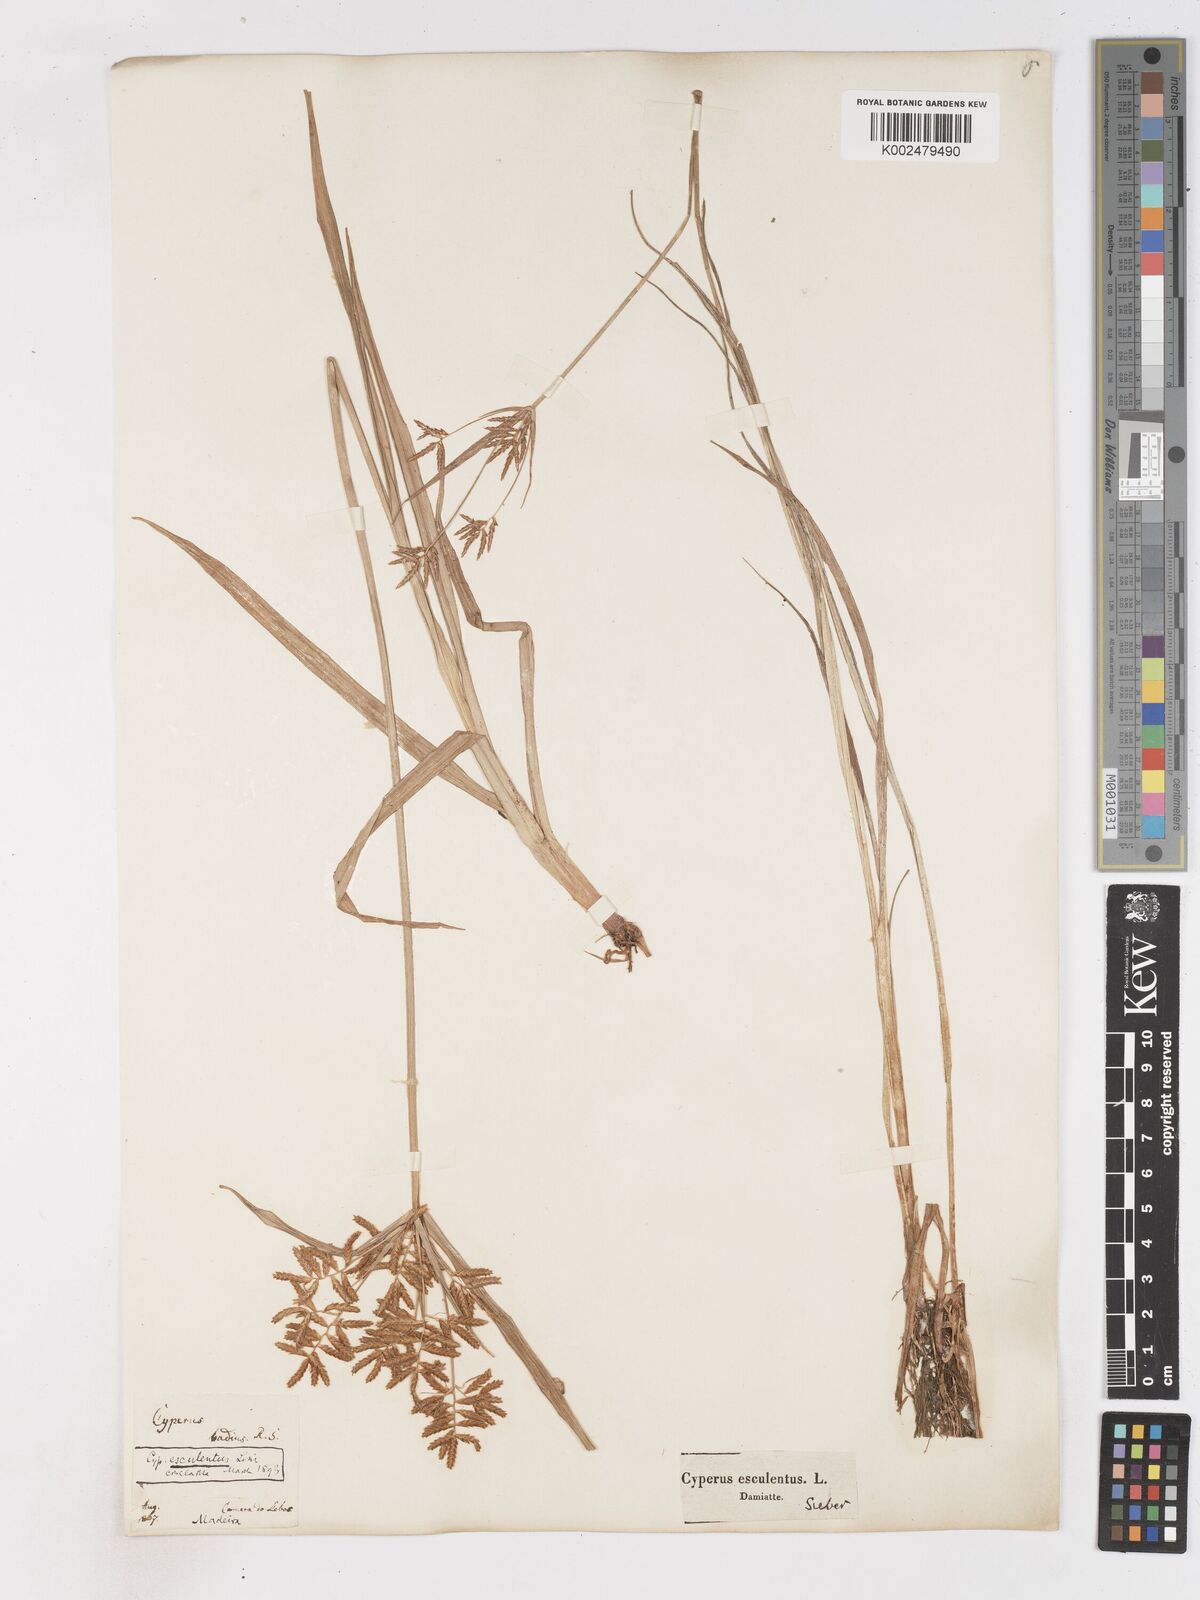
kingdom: Plantae
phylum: Tracheophyta
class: Liliopsida
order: Poales
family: Cyperaceae
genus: Cyperus
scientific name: Cyperus esculentus
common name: Yellow nutsedge
